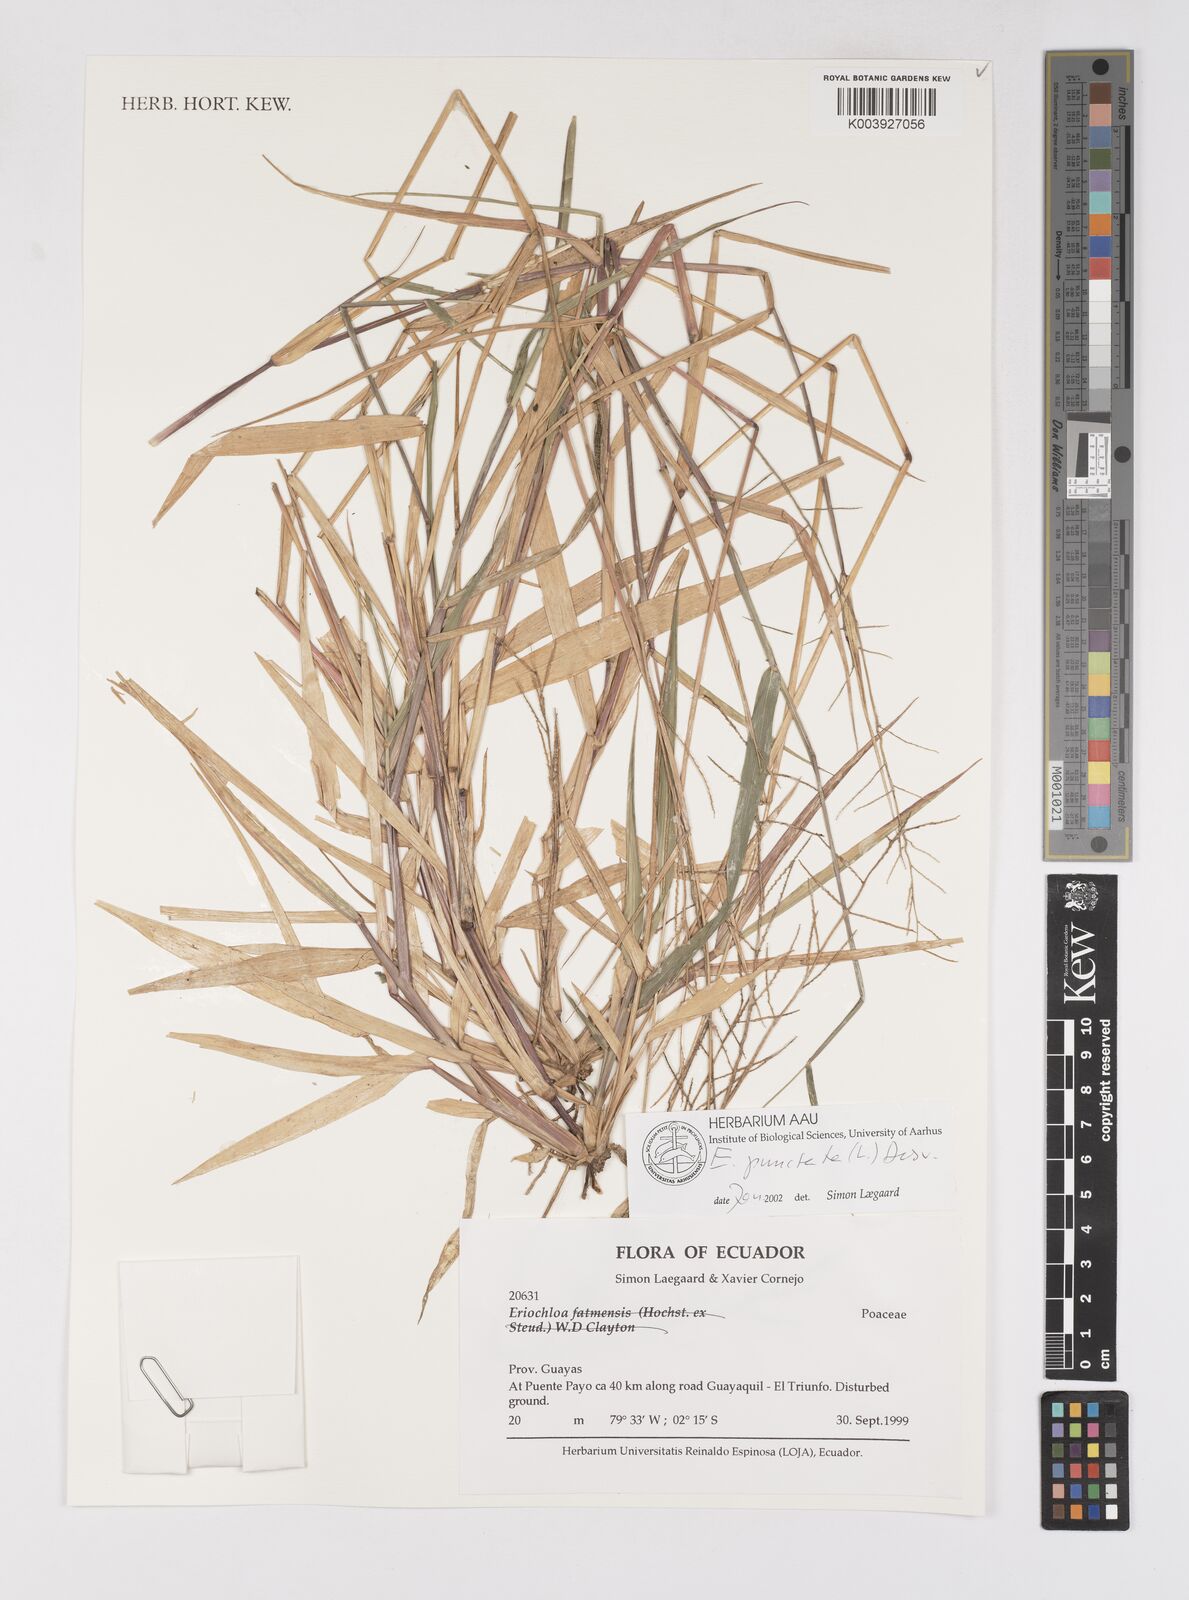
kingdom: Plantae
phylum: Tracheophyta
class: Liliopsida
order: Poales
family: Poaceae
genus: Eriochloa
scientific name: Eriochloa punctata
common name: Louisiana cupgrass
